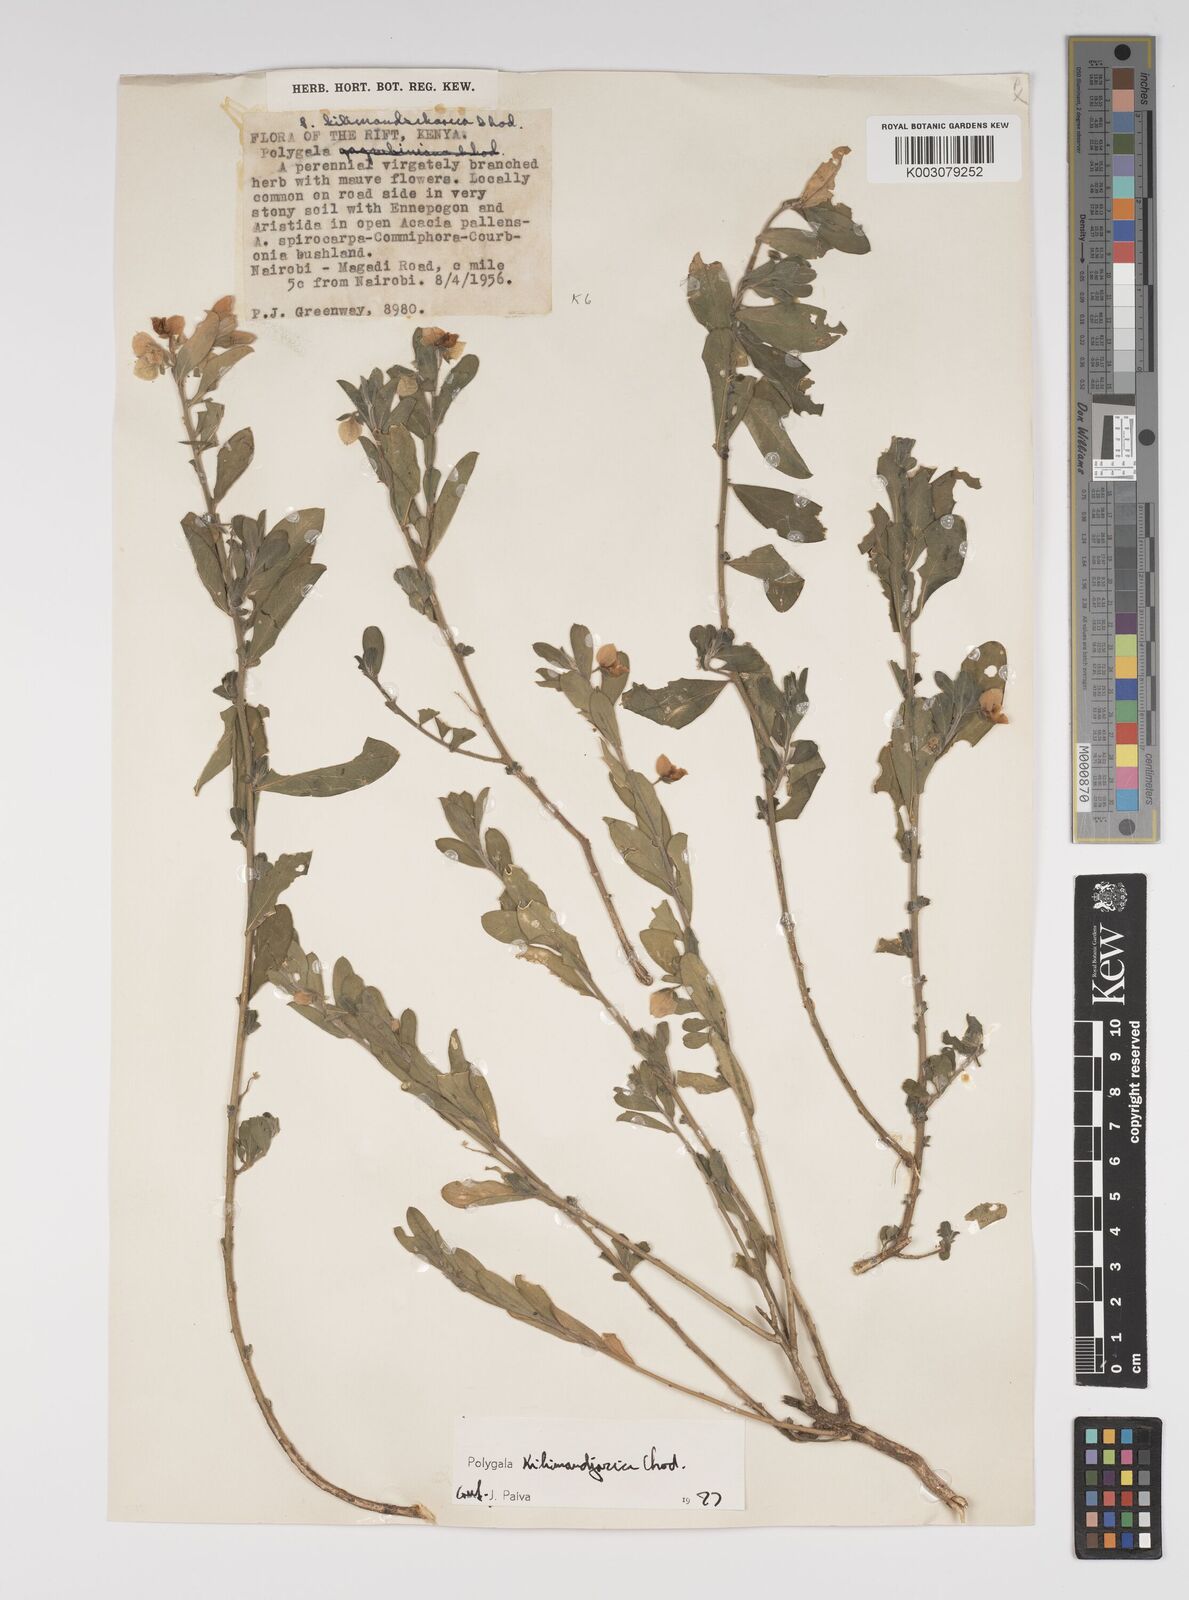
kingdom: Plantae
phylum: Tracheophyta
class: Magnoliopsida
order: Fabales
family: Polygalaceae
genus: Polygala
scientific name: Polygala kilimandjarica
